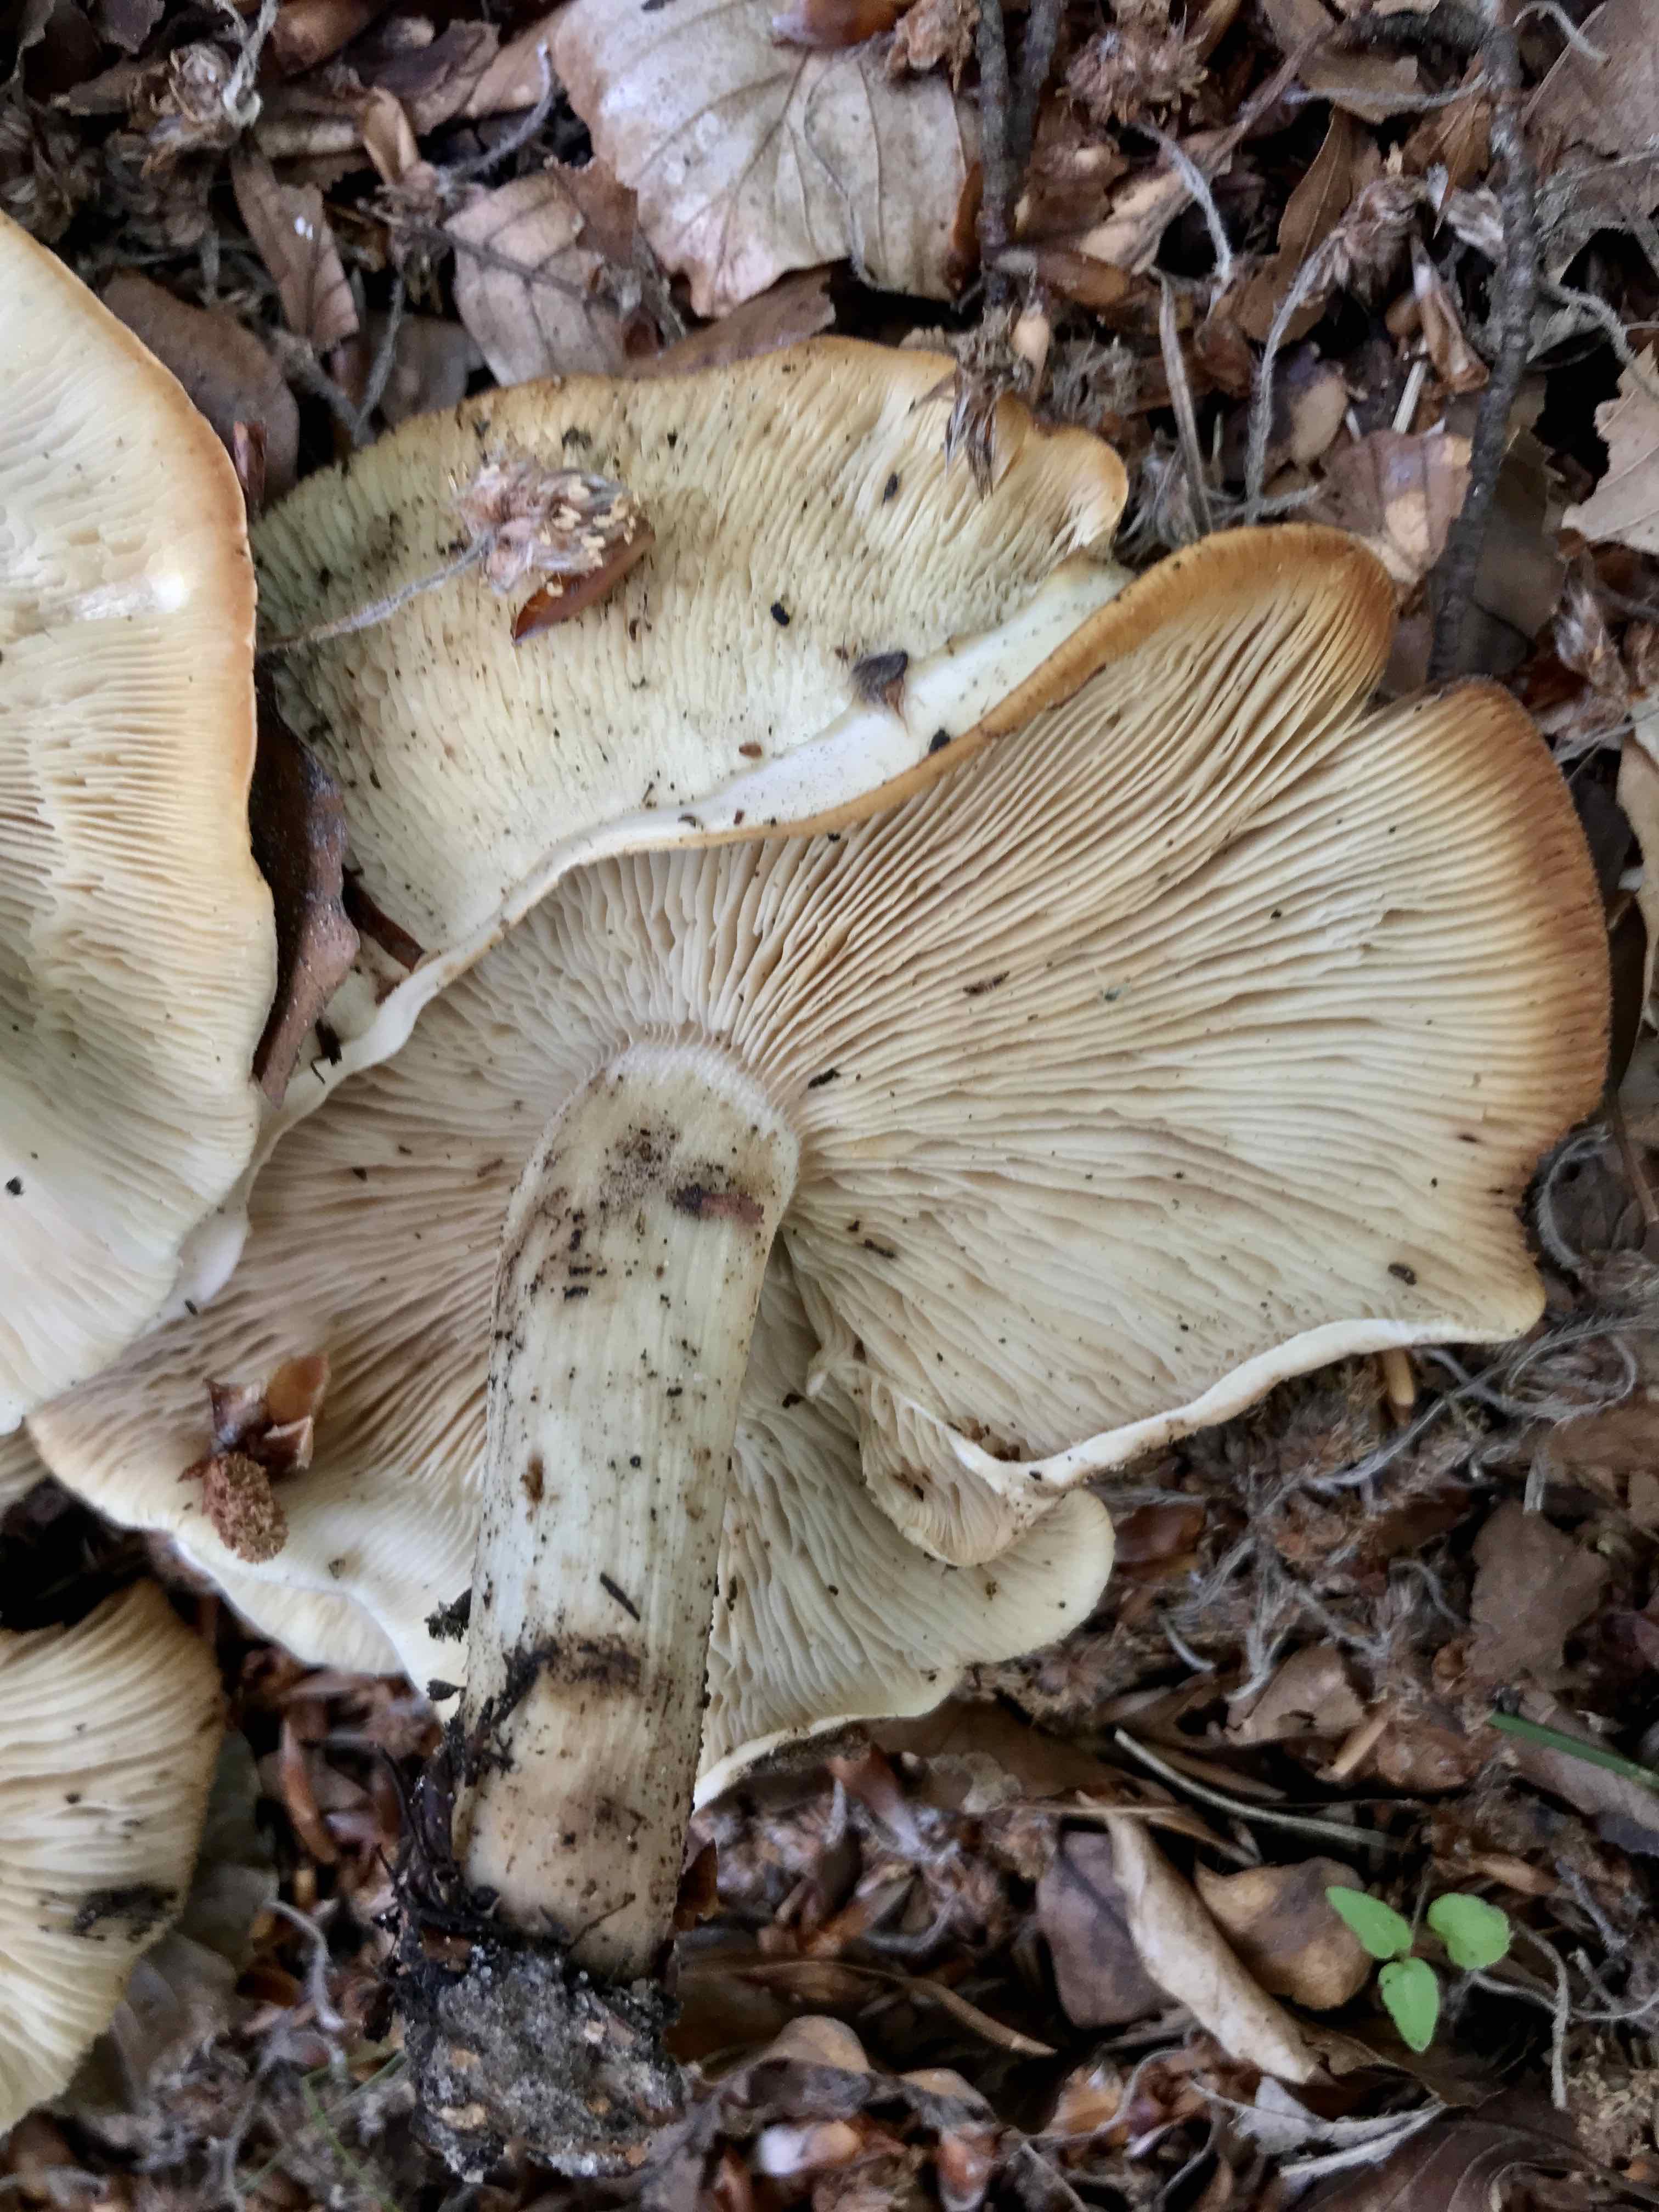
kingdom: Fungi
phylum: Basidiomycota
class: Agaricomycetes
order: Agaricales
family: Lyophyllaceae
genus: Calocybe
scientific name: Calocybe gambosa
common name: vårmusseron
